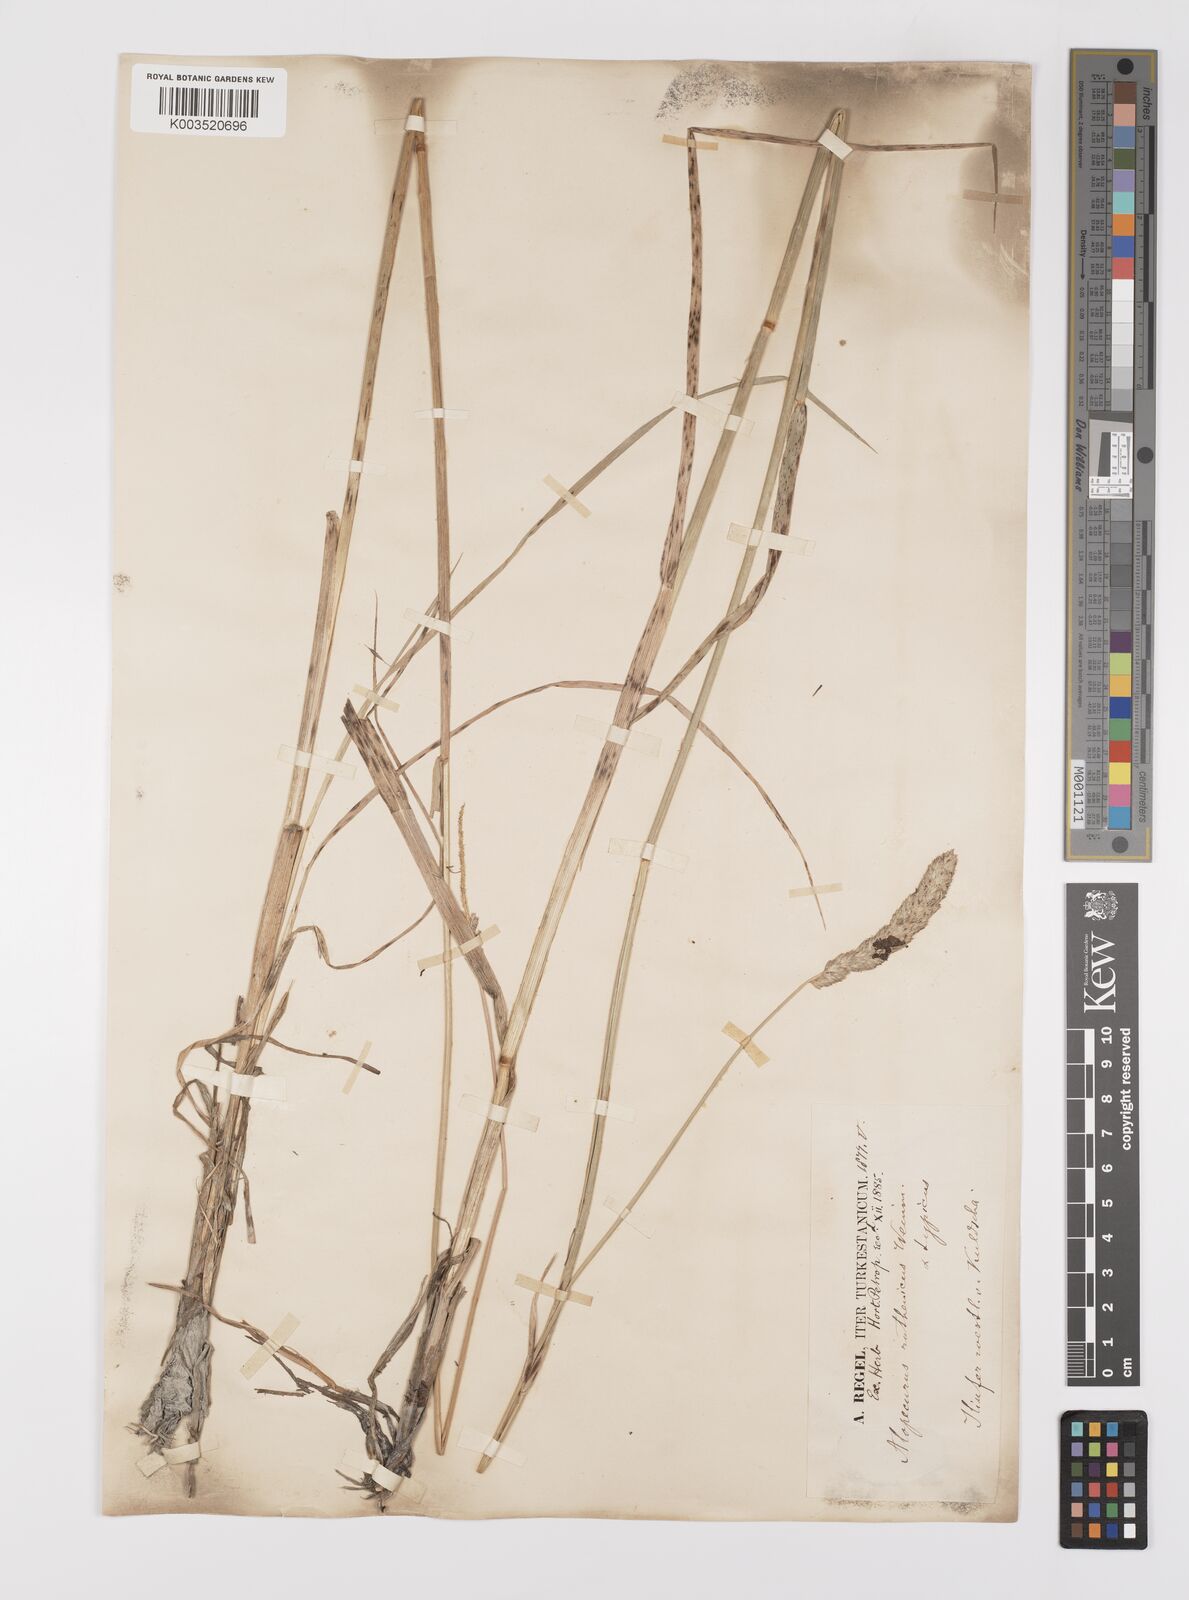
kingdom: Plantae
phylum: Tracheophyta
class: Liliopsida
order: Poales
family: Poaceae
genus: Alopecurus
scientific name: Alopecurus arundinaceus
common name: Creeping meadow foxtail
